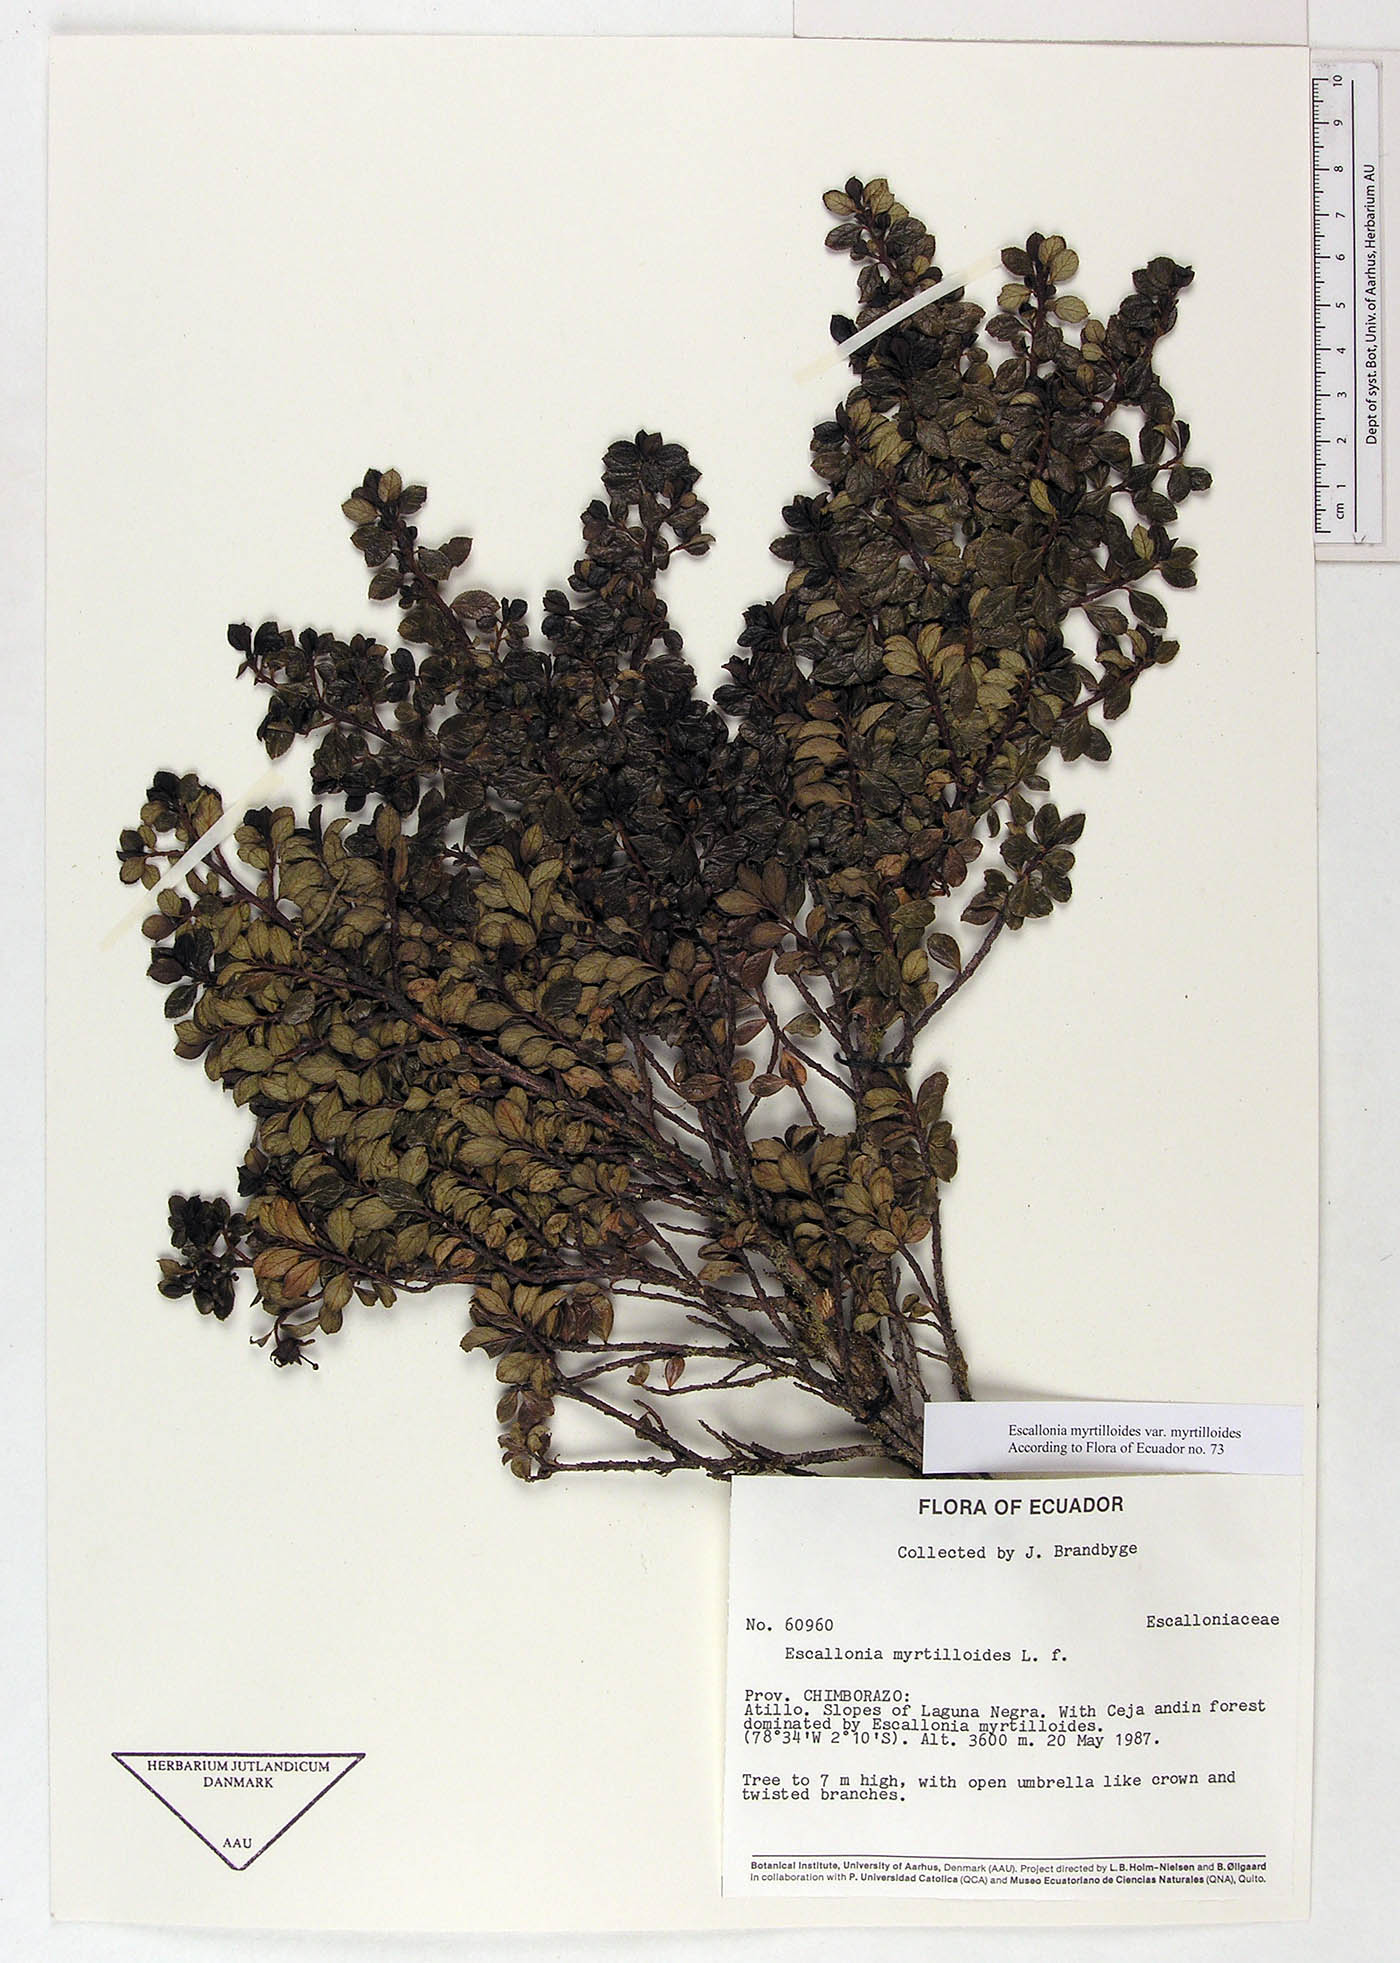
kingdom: Plantae
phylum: Tracheophyta
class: Magnoliopsida
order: Escalloniales
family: Escalloniaceae
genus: Escallonia
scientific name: Escallonia myrtilloides
